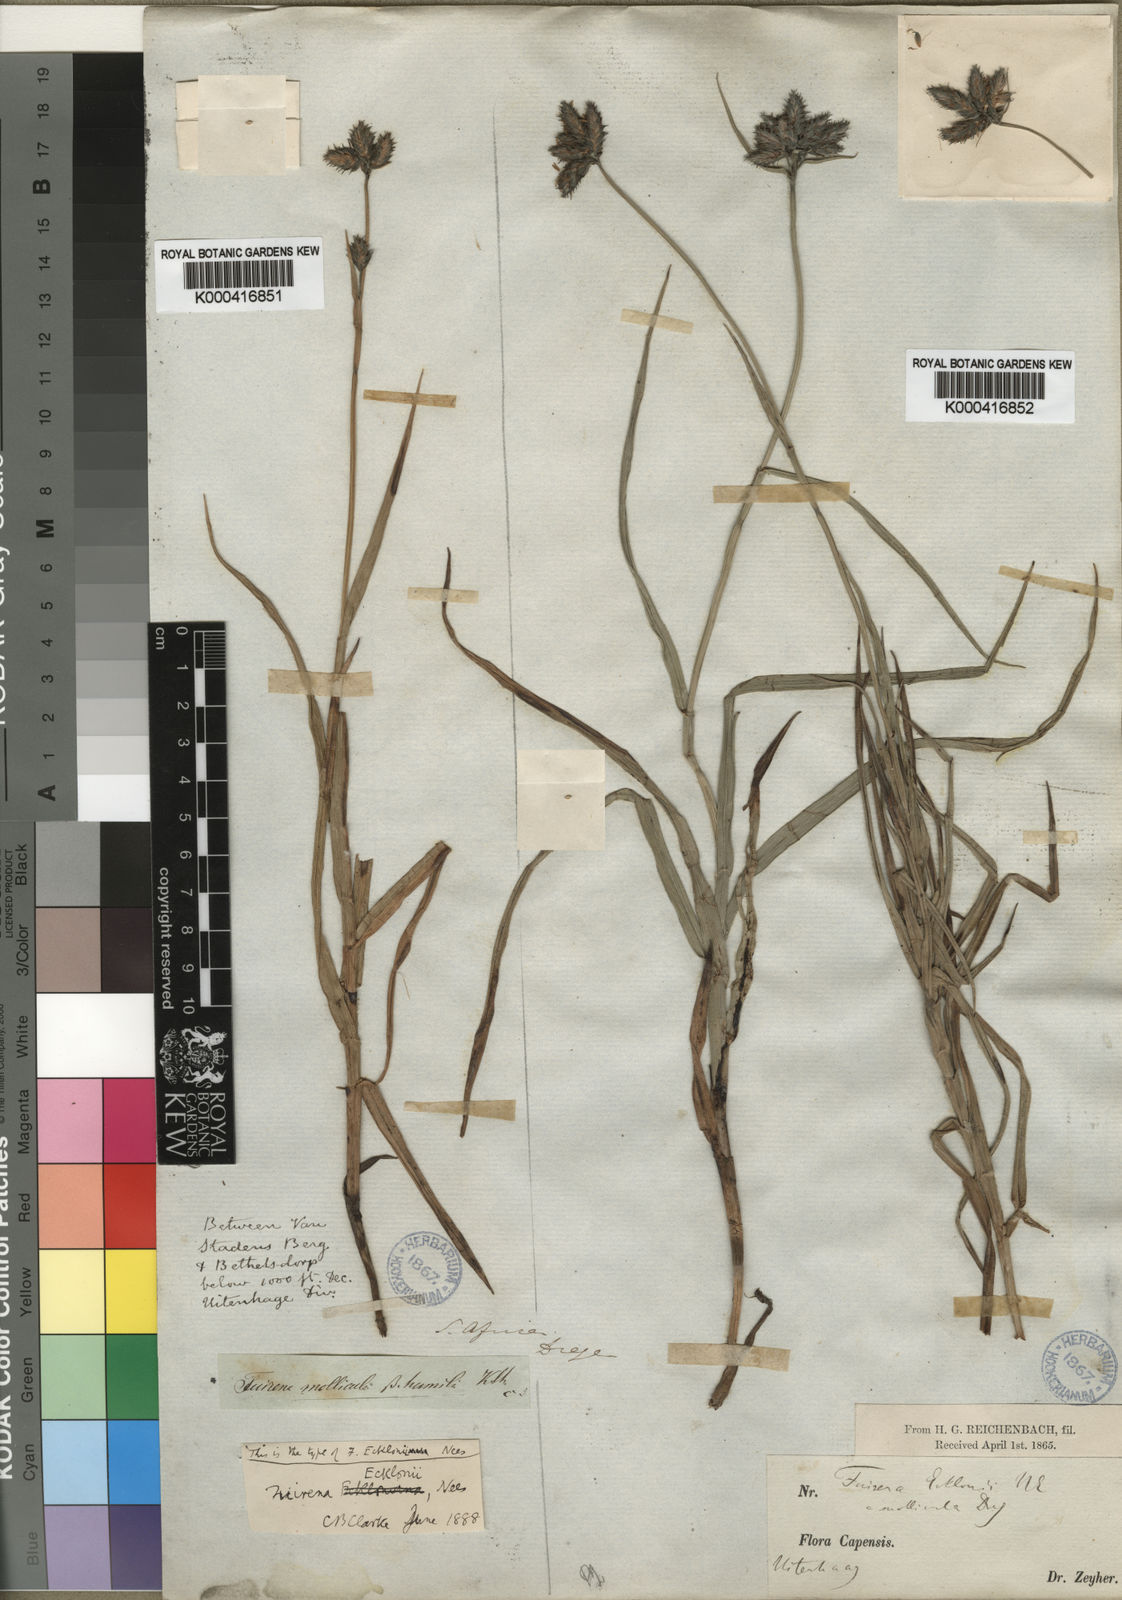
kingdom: Plantae
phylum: Tracheophyta
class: Liliopsida
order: Poales
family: Cyperaceae
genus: Fuirena
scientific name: Fuirena ecklonii
